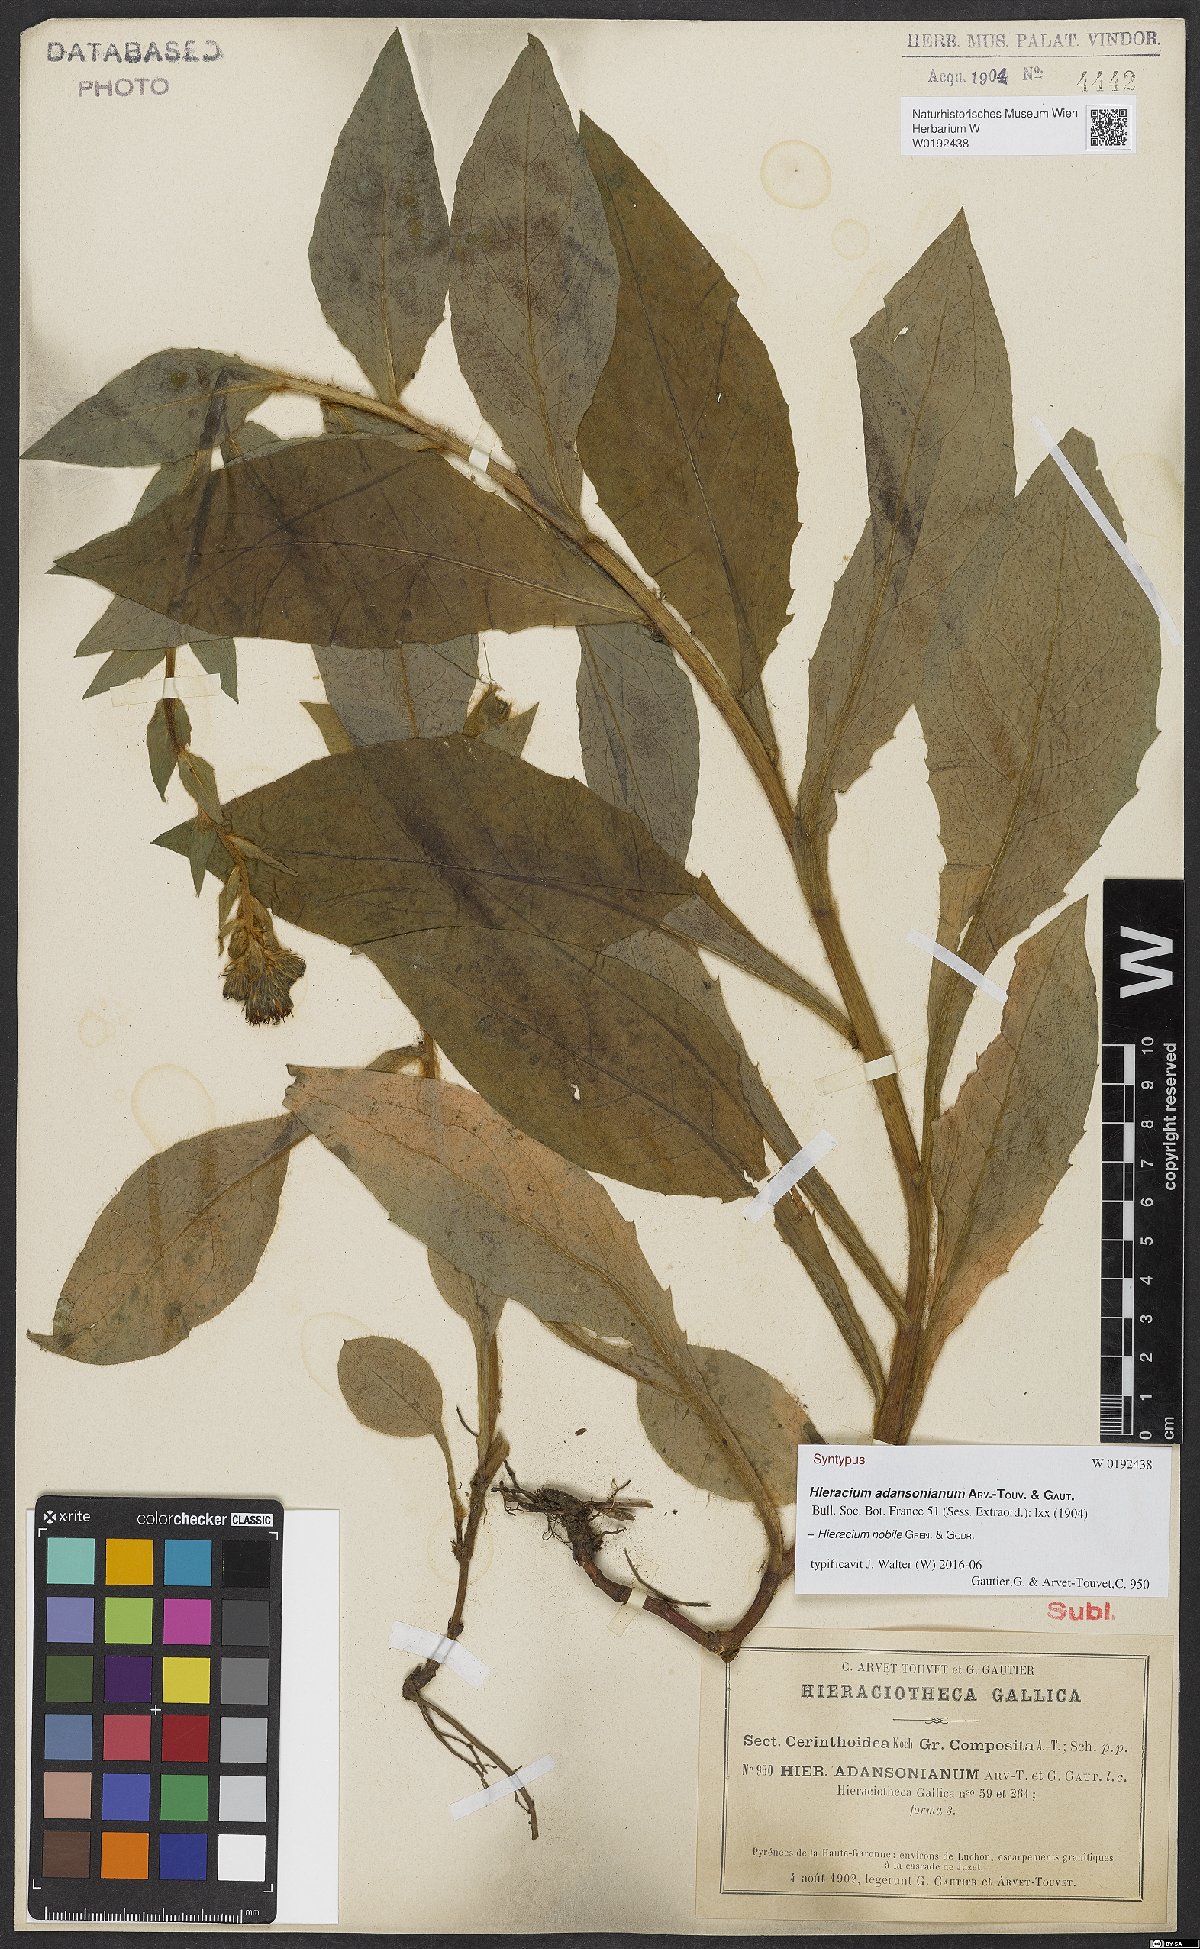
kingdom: Plantae
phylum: Tracheophyta
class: Magnoliopsida
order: Asterales
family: Asteraceae
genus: Hieracium
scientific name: Hieracium nobile
